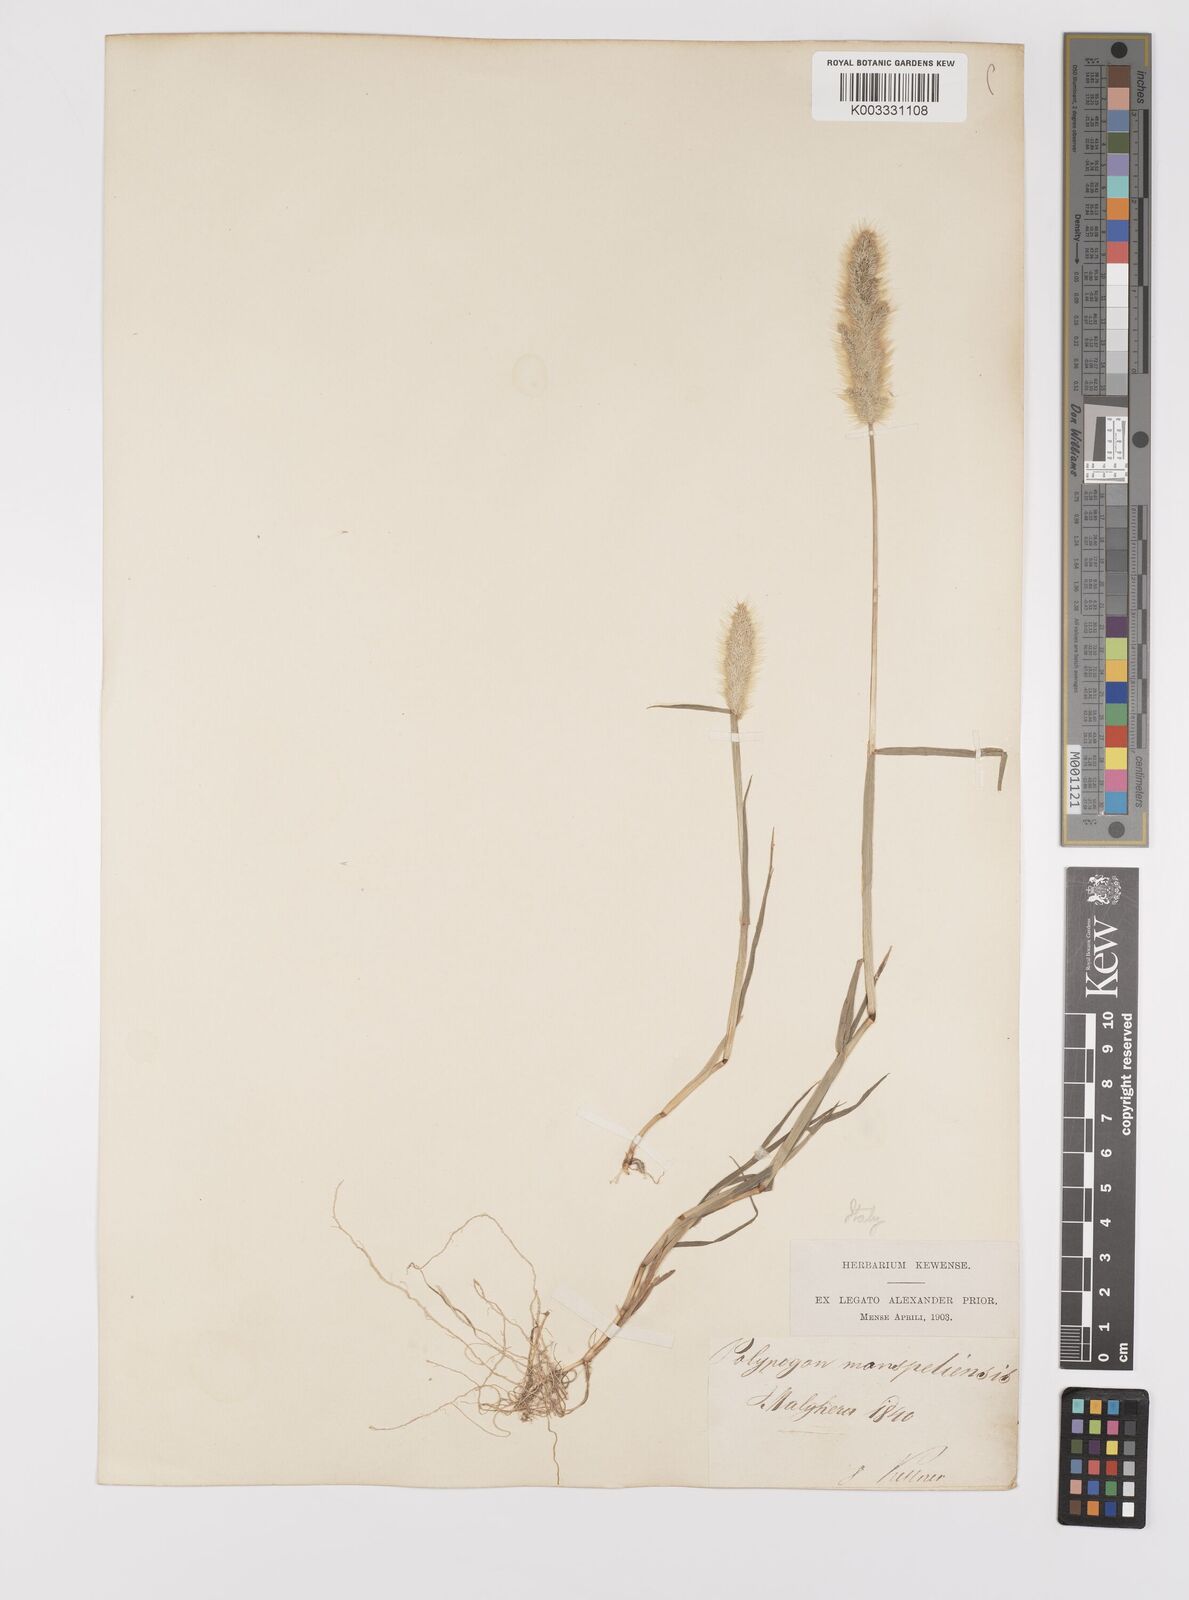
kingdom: Plantae
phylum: Tracheophyta
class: Liliopsida
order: Poales
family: Poaceae
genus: Polypogon
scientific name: Polypogon monspeliensis
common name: Annual rabbitsfoot grass
